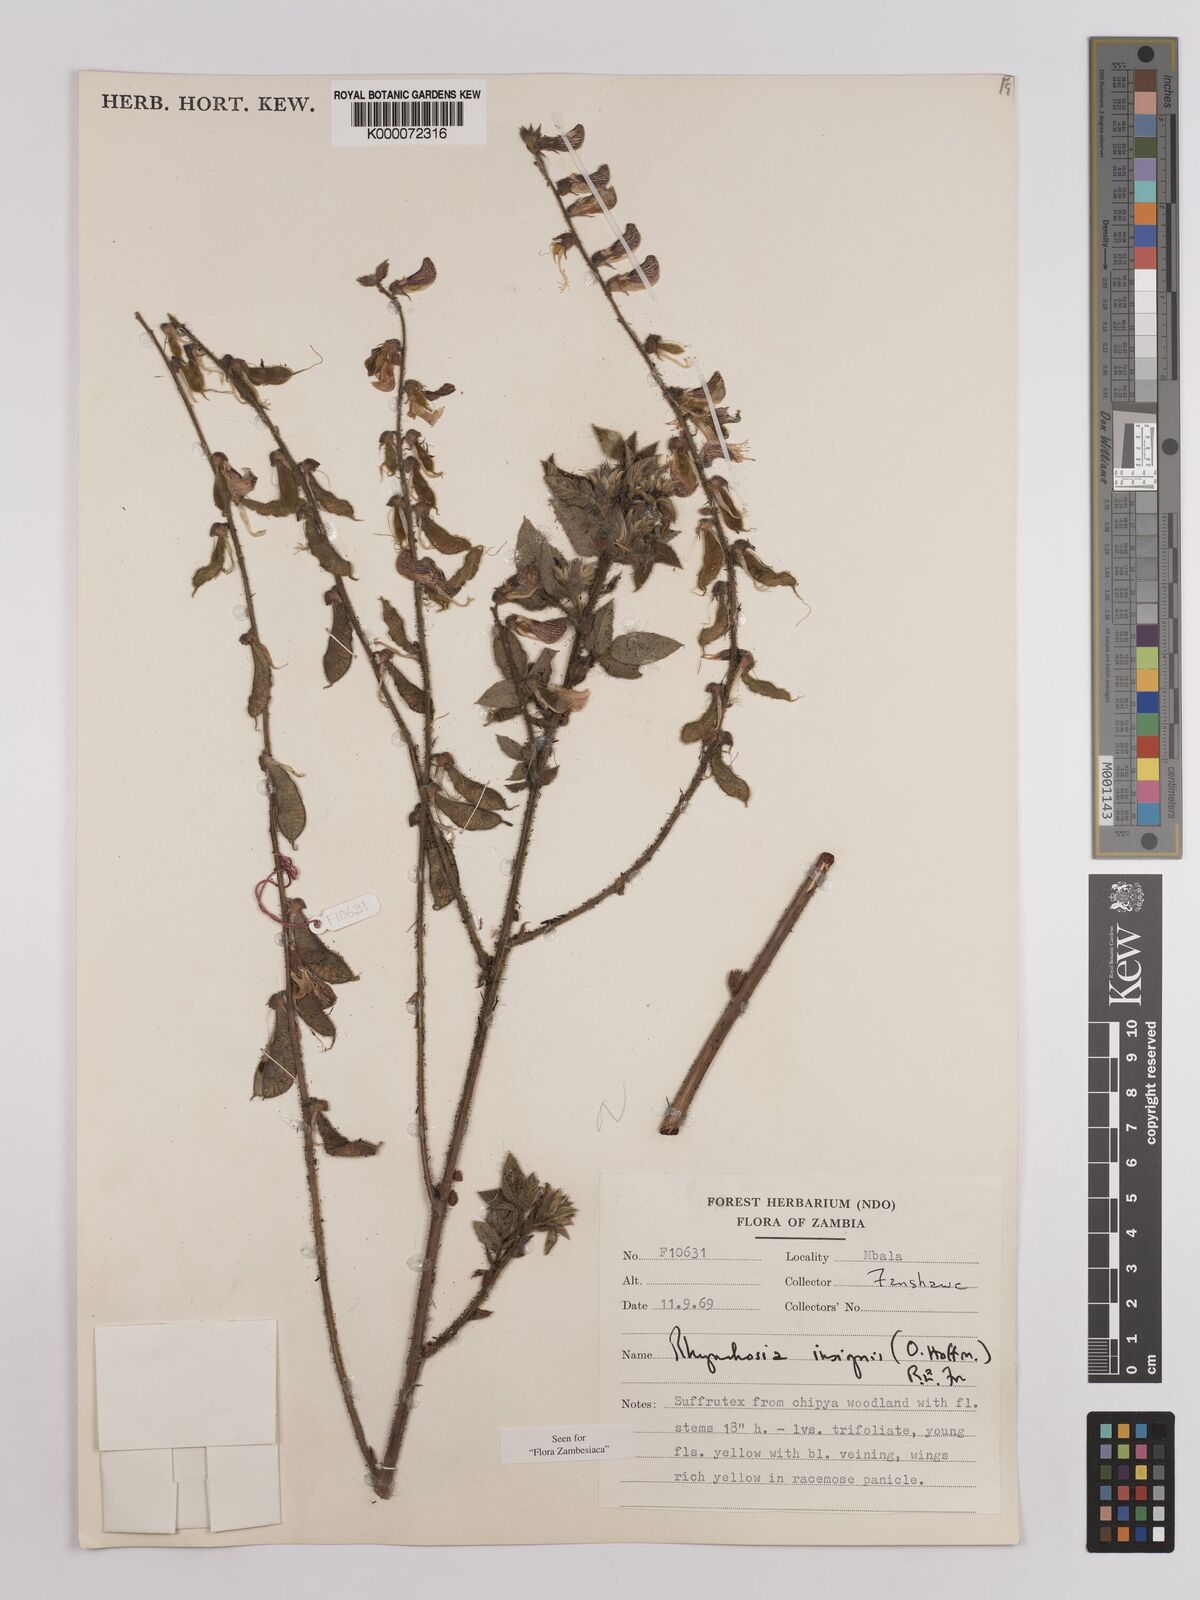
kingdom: Plantae
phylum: Tracheophyta
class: Magnoliopsida
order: Fabales
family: Fabaceae
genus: Rhynchosia
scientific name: Rhynchosia insignis
